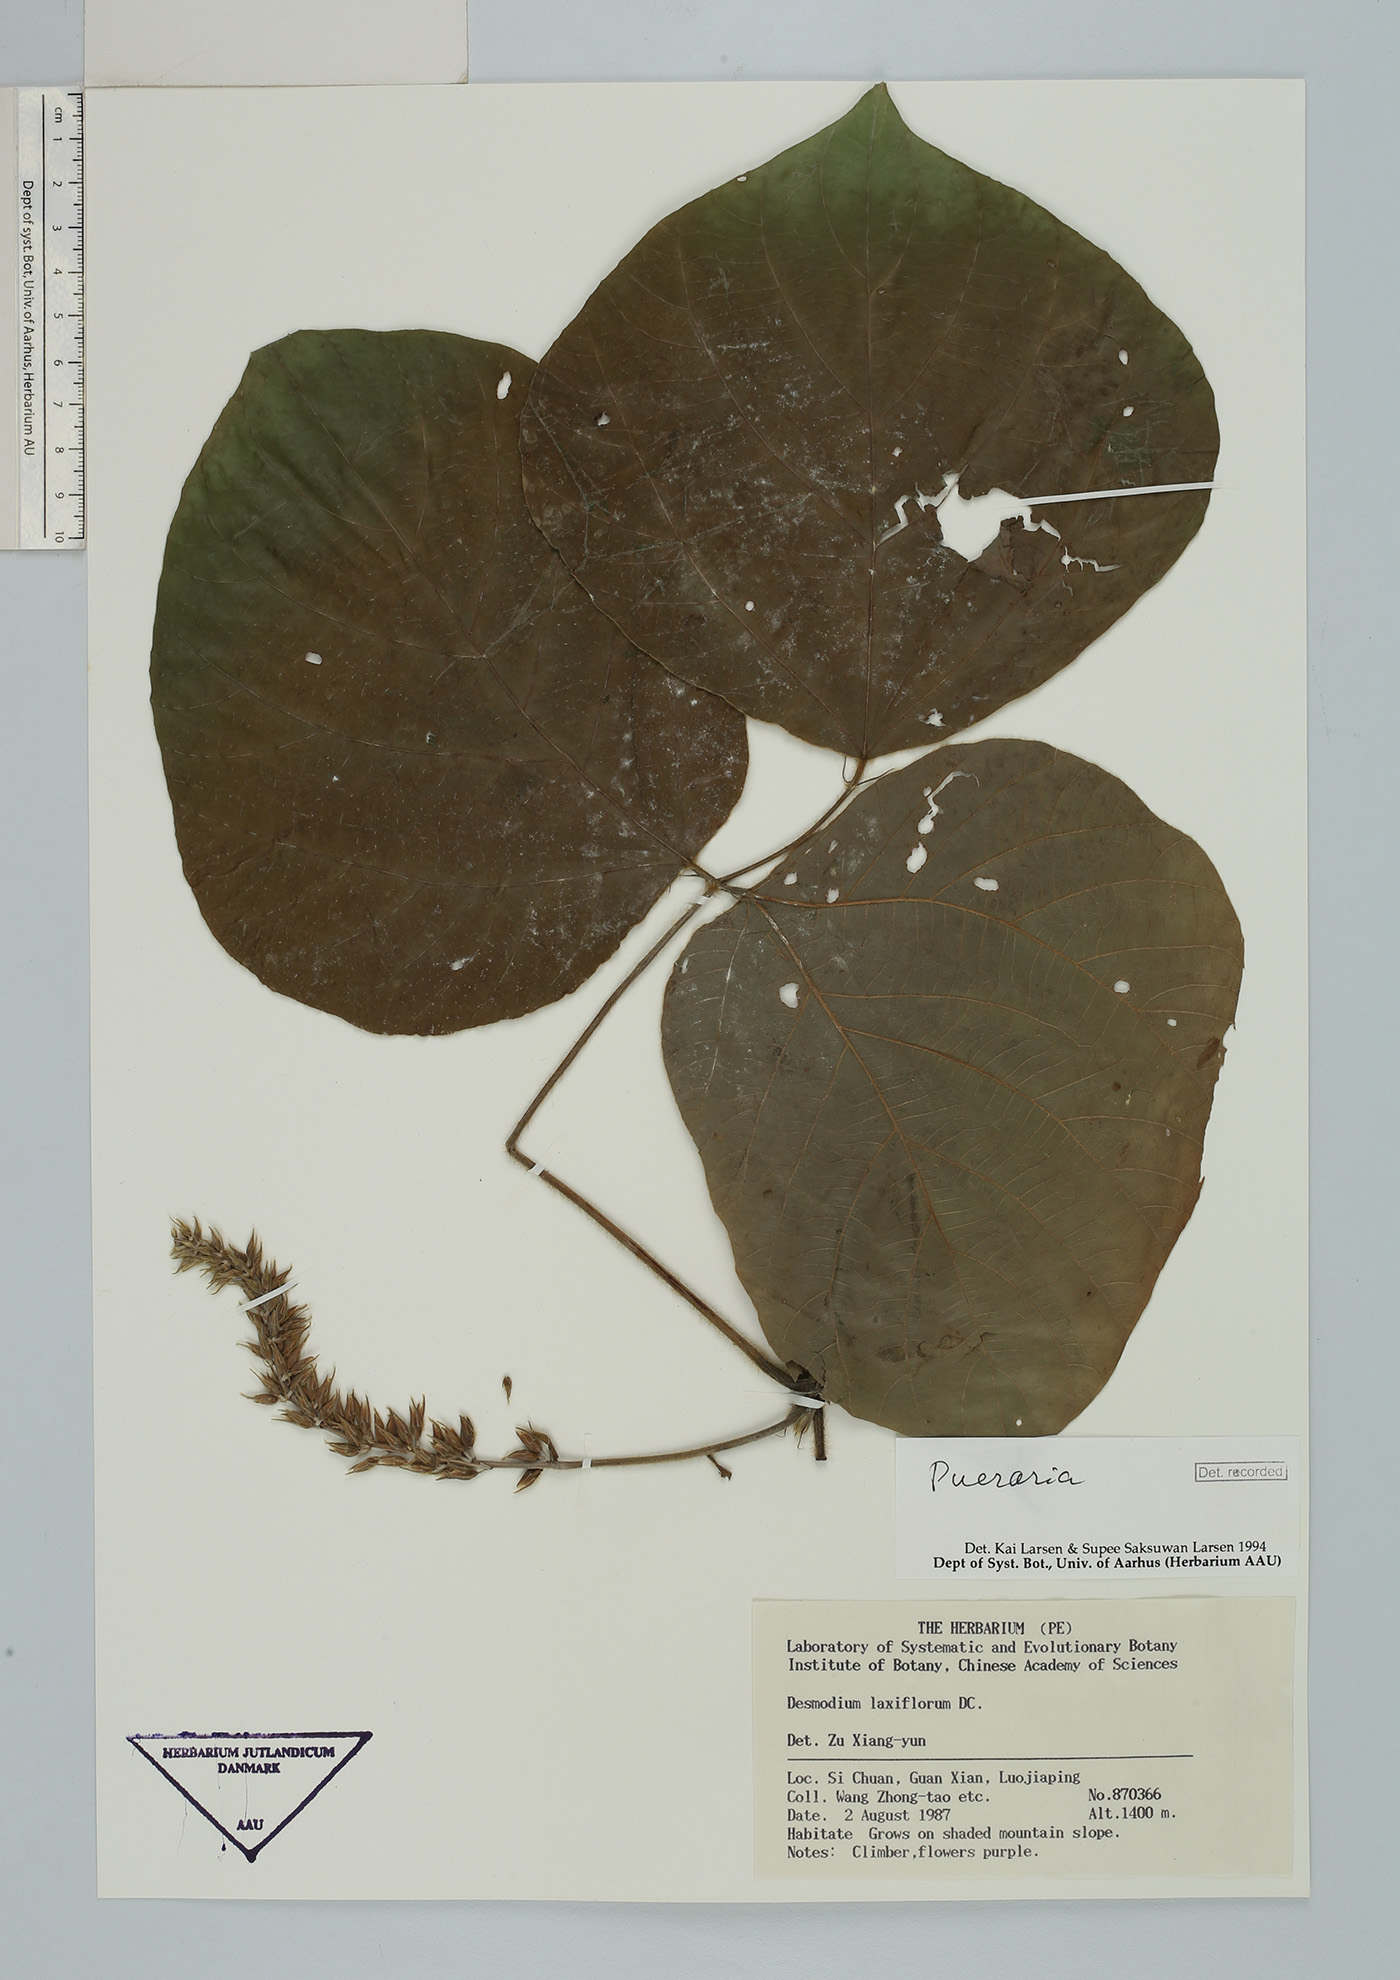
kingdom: Plantae
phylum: Tracheophyta
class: Magnoliopsida
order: Fabales
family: Fabaceae
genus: Pueraria
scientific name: Pueraria montana
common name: Kudzu
